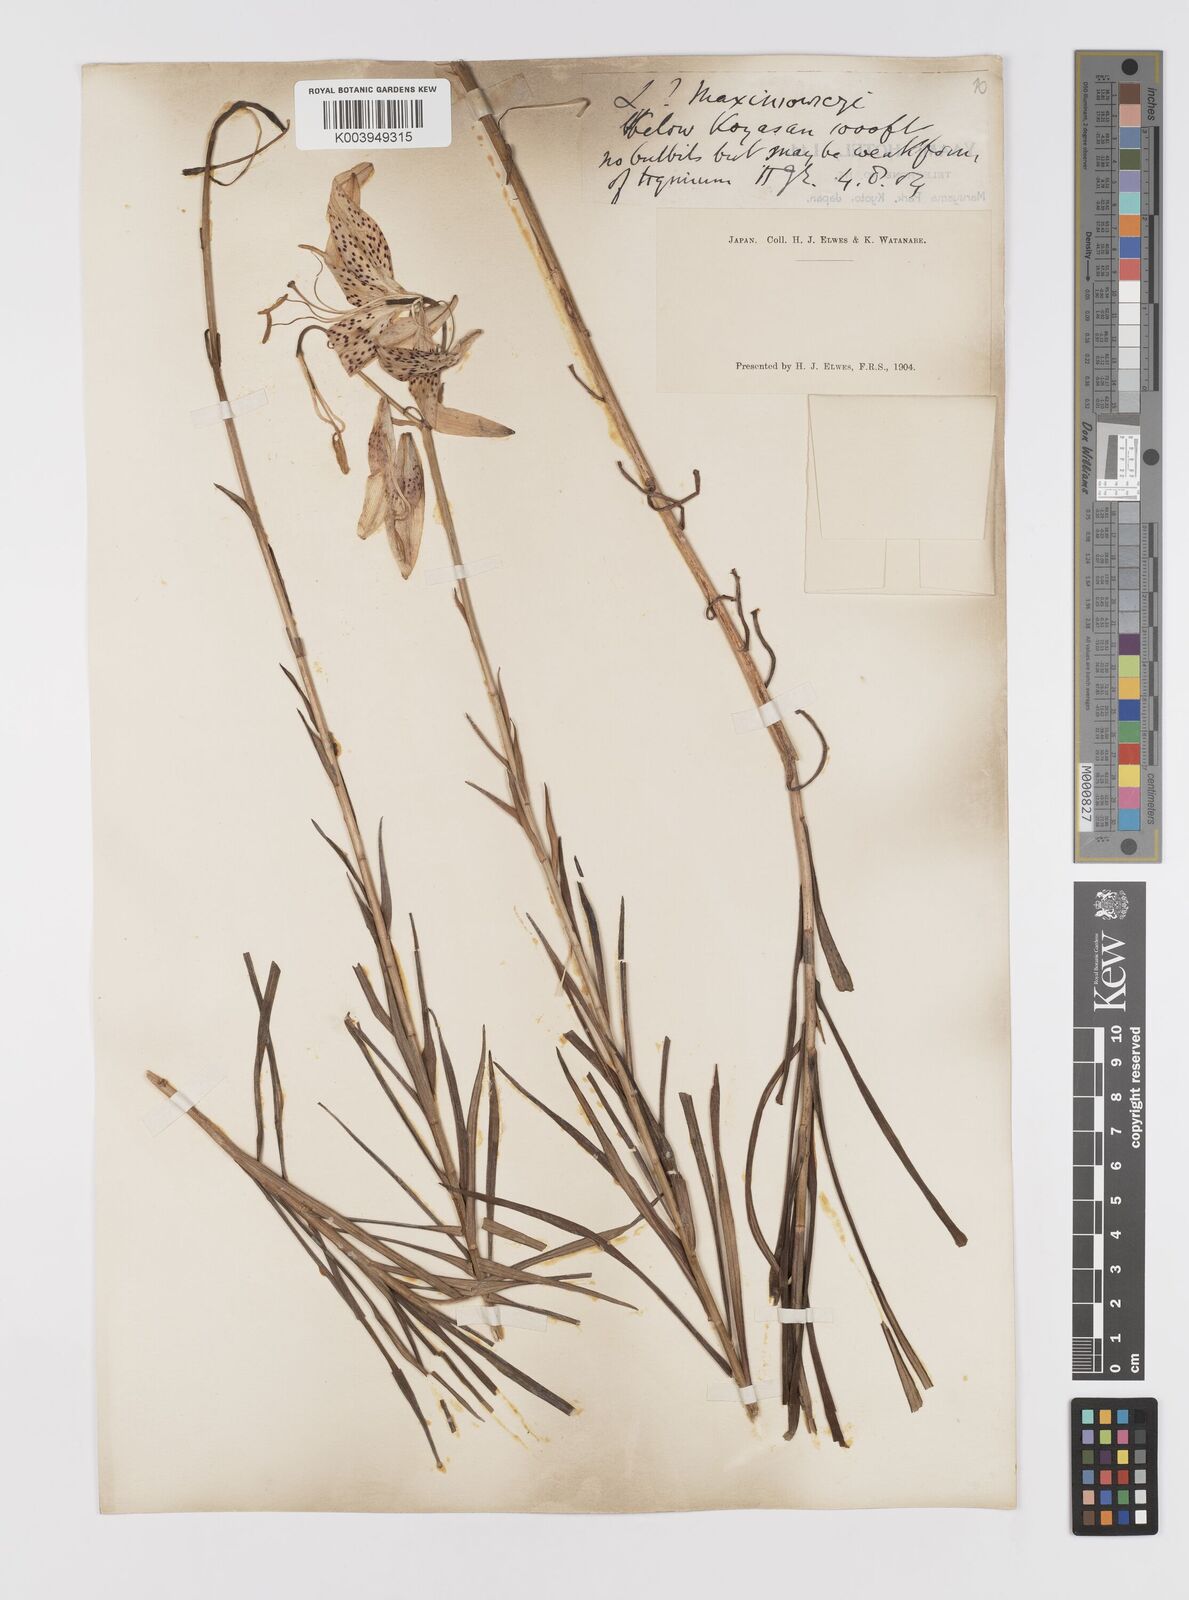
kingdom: Plantae
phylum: Tracheophyta
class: Liliopsida
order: Liliales
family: Liliaceae
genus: Lilium
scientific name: Lilium leichtlinii
